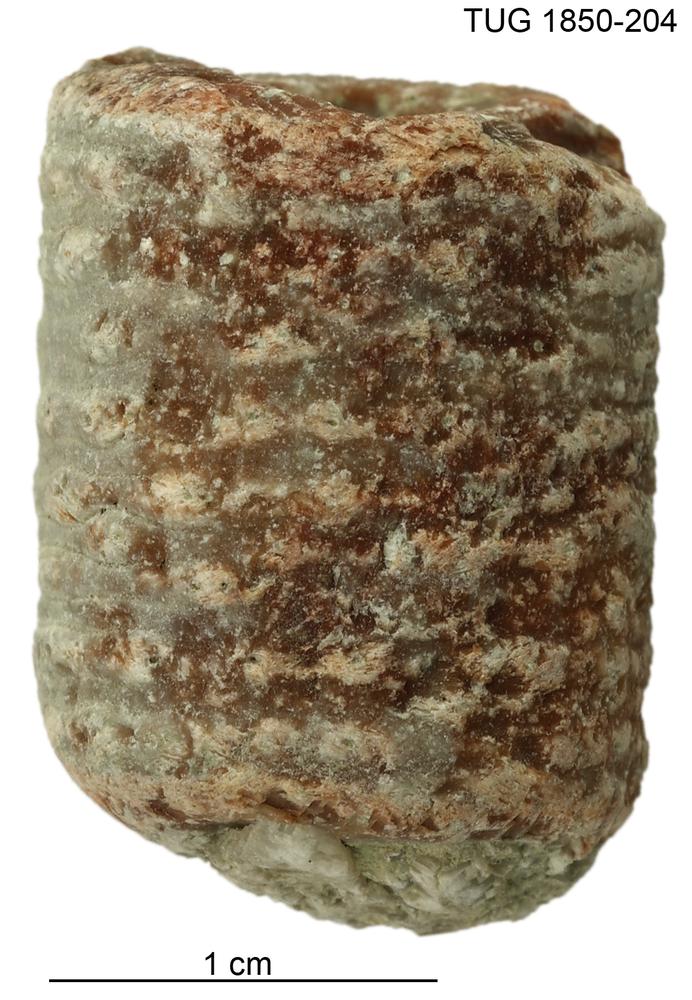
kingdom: Animalia
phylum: Echinodermata
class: Crinoidea
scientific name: Crinoidea
